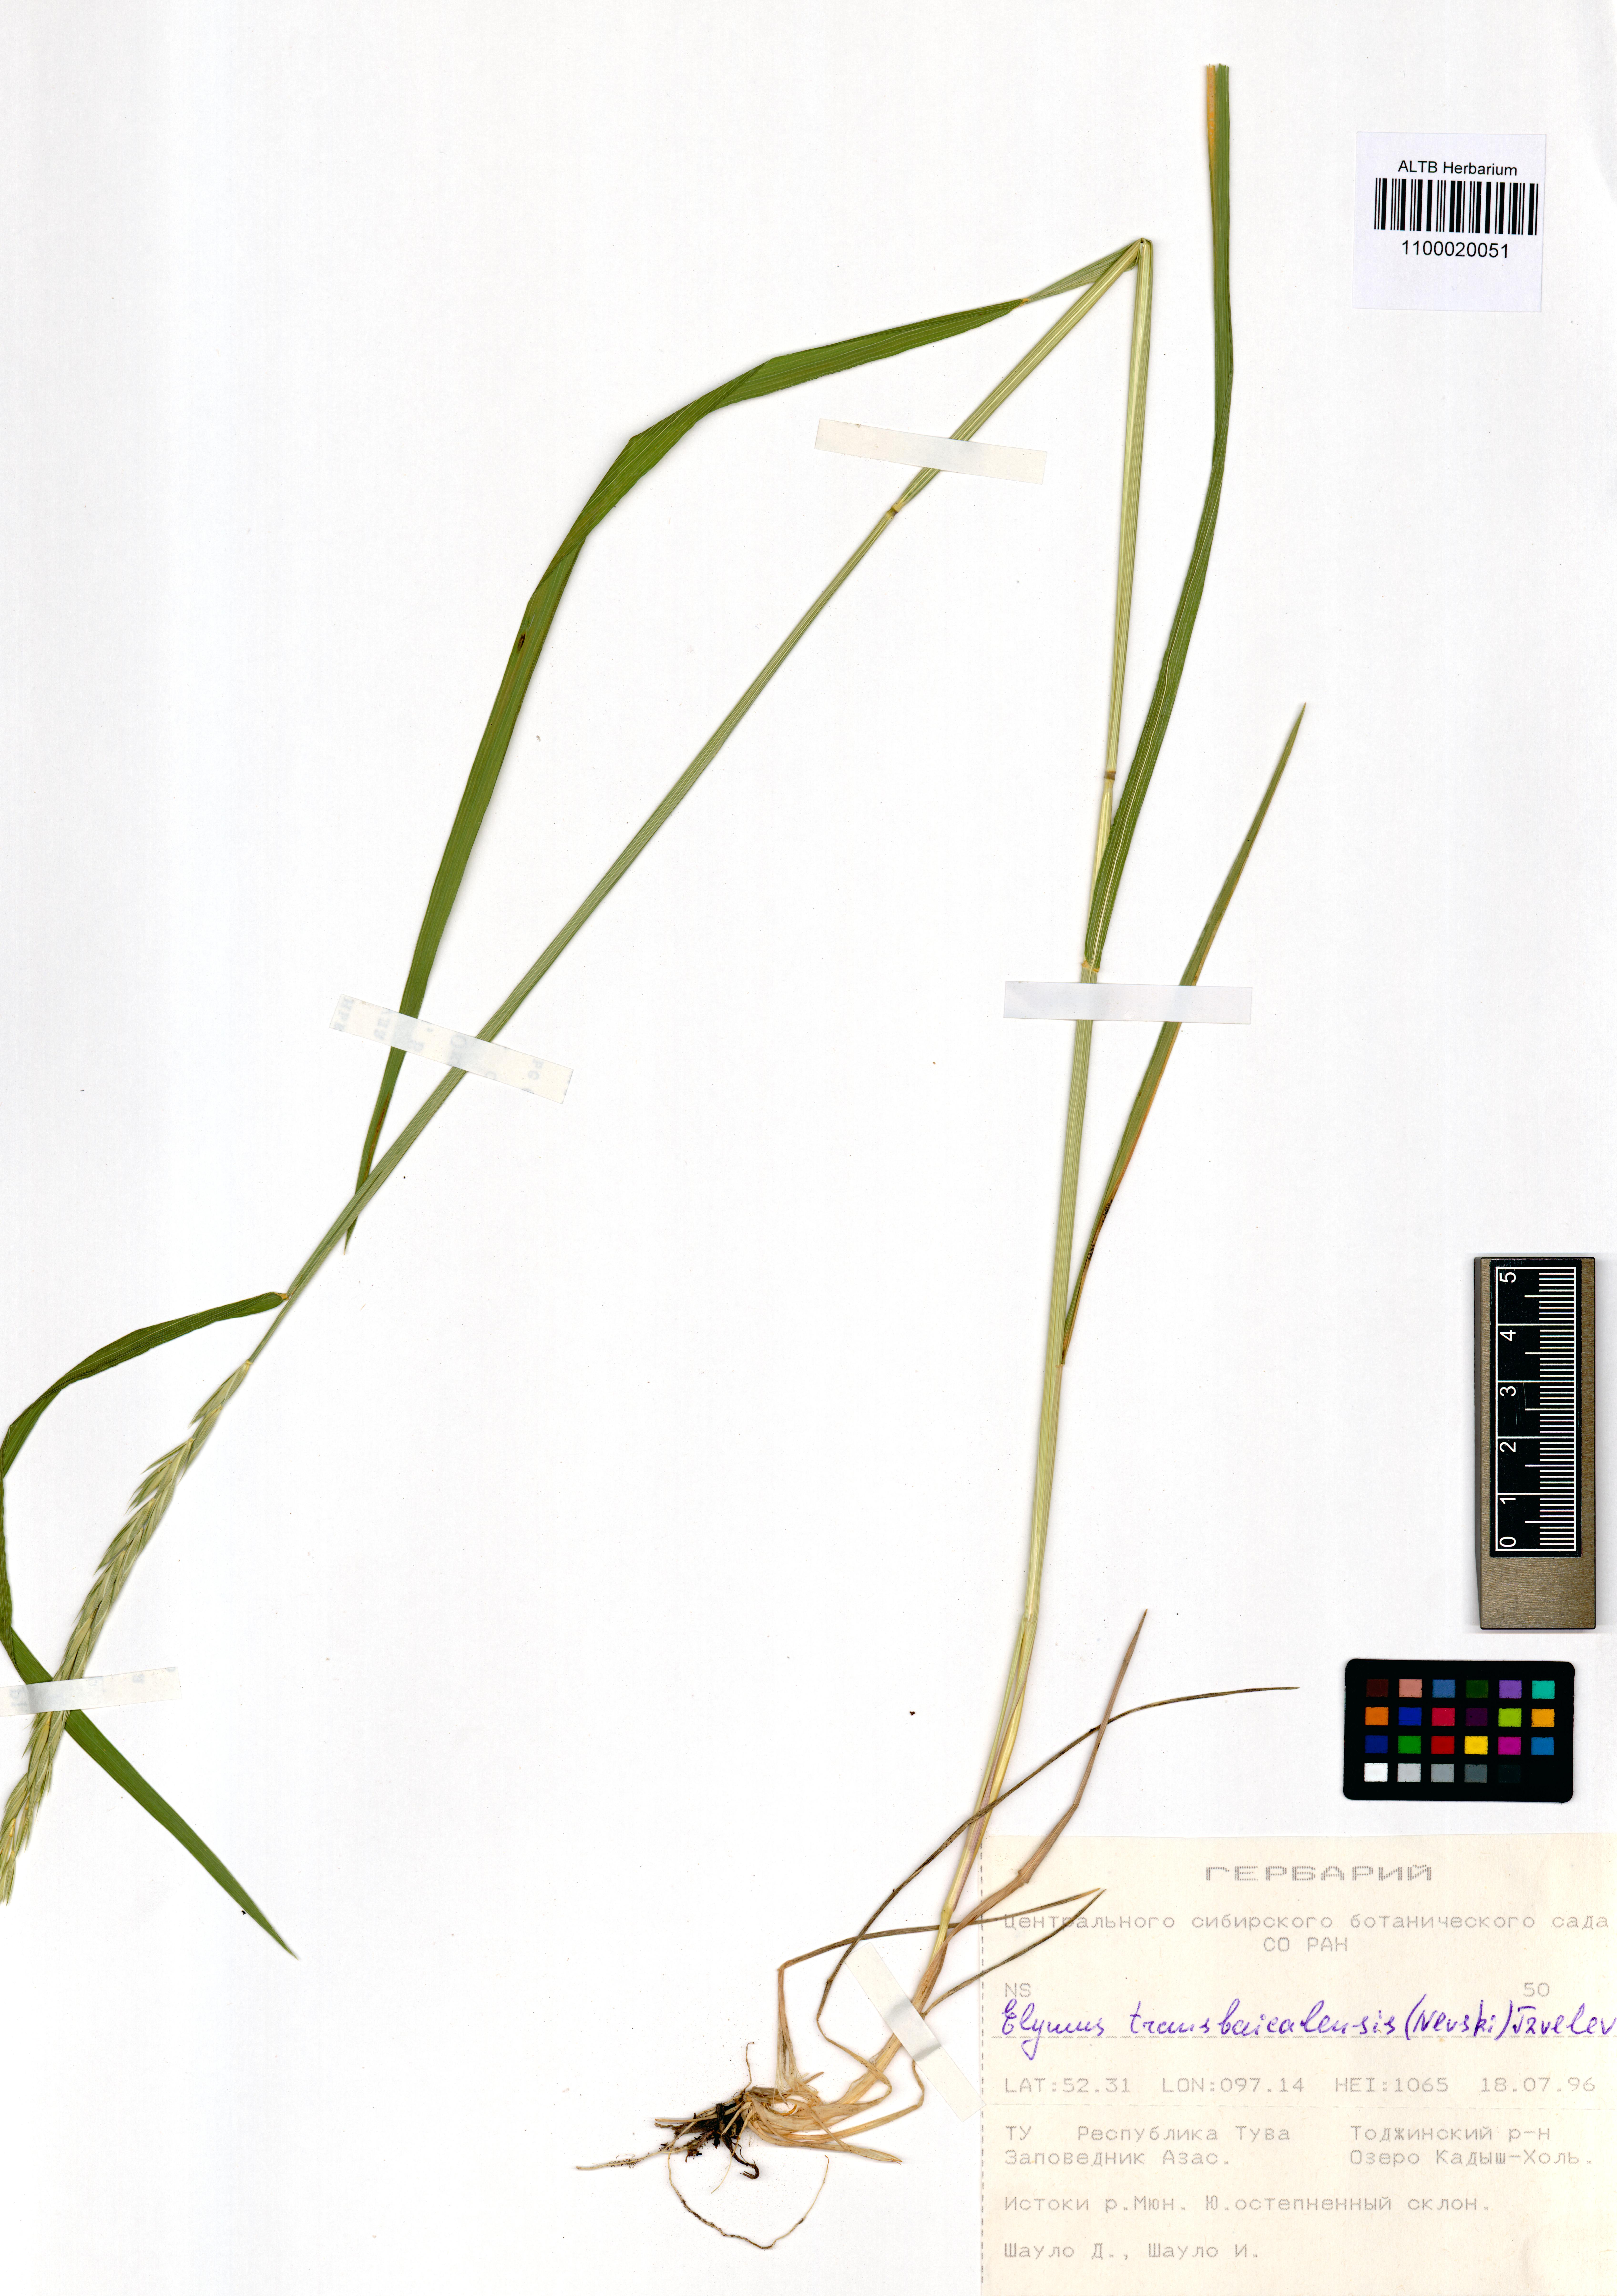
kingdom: Plantae
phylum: Tracheophyta
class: Liliopsida
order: Poales
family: Poaceae
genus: Elymus
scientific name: Elymus mutabilis
